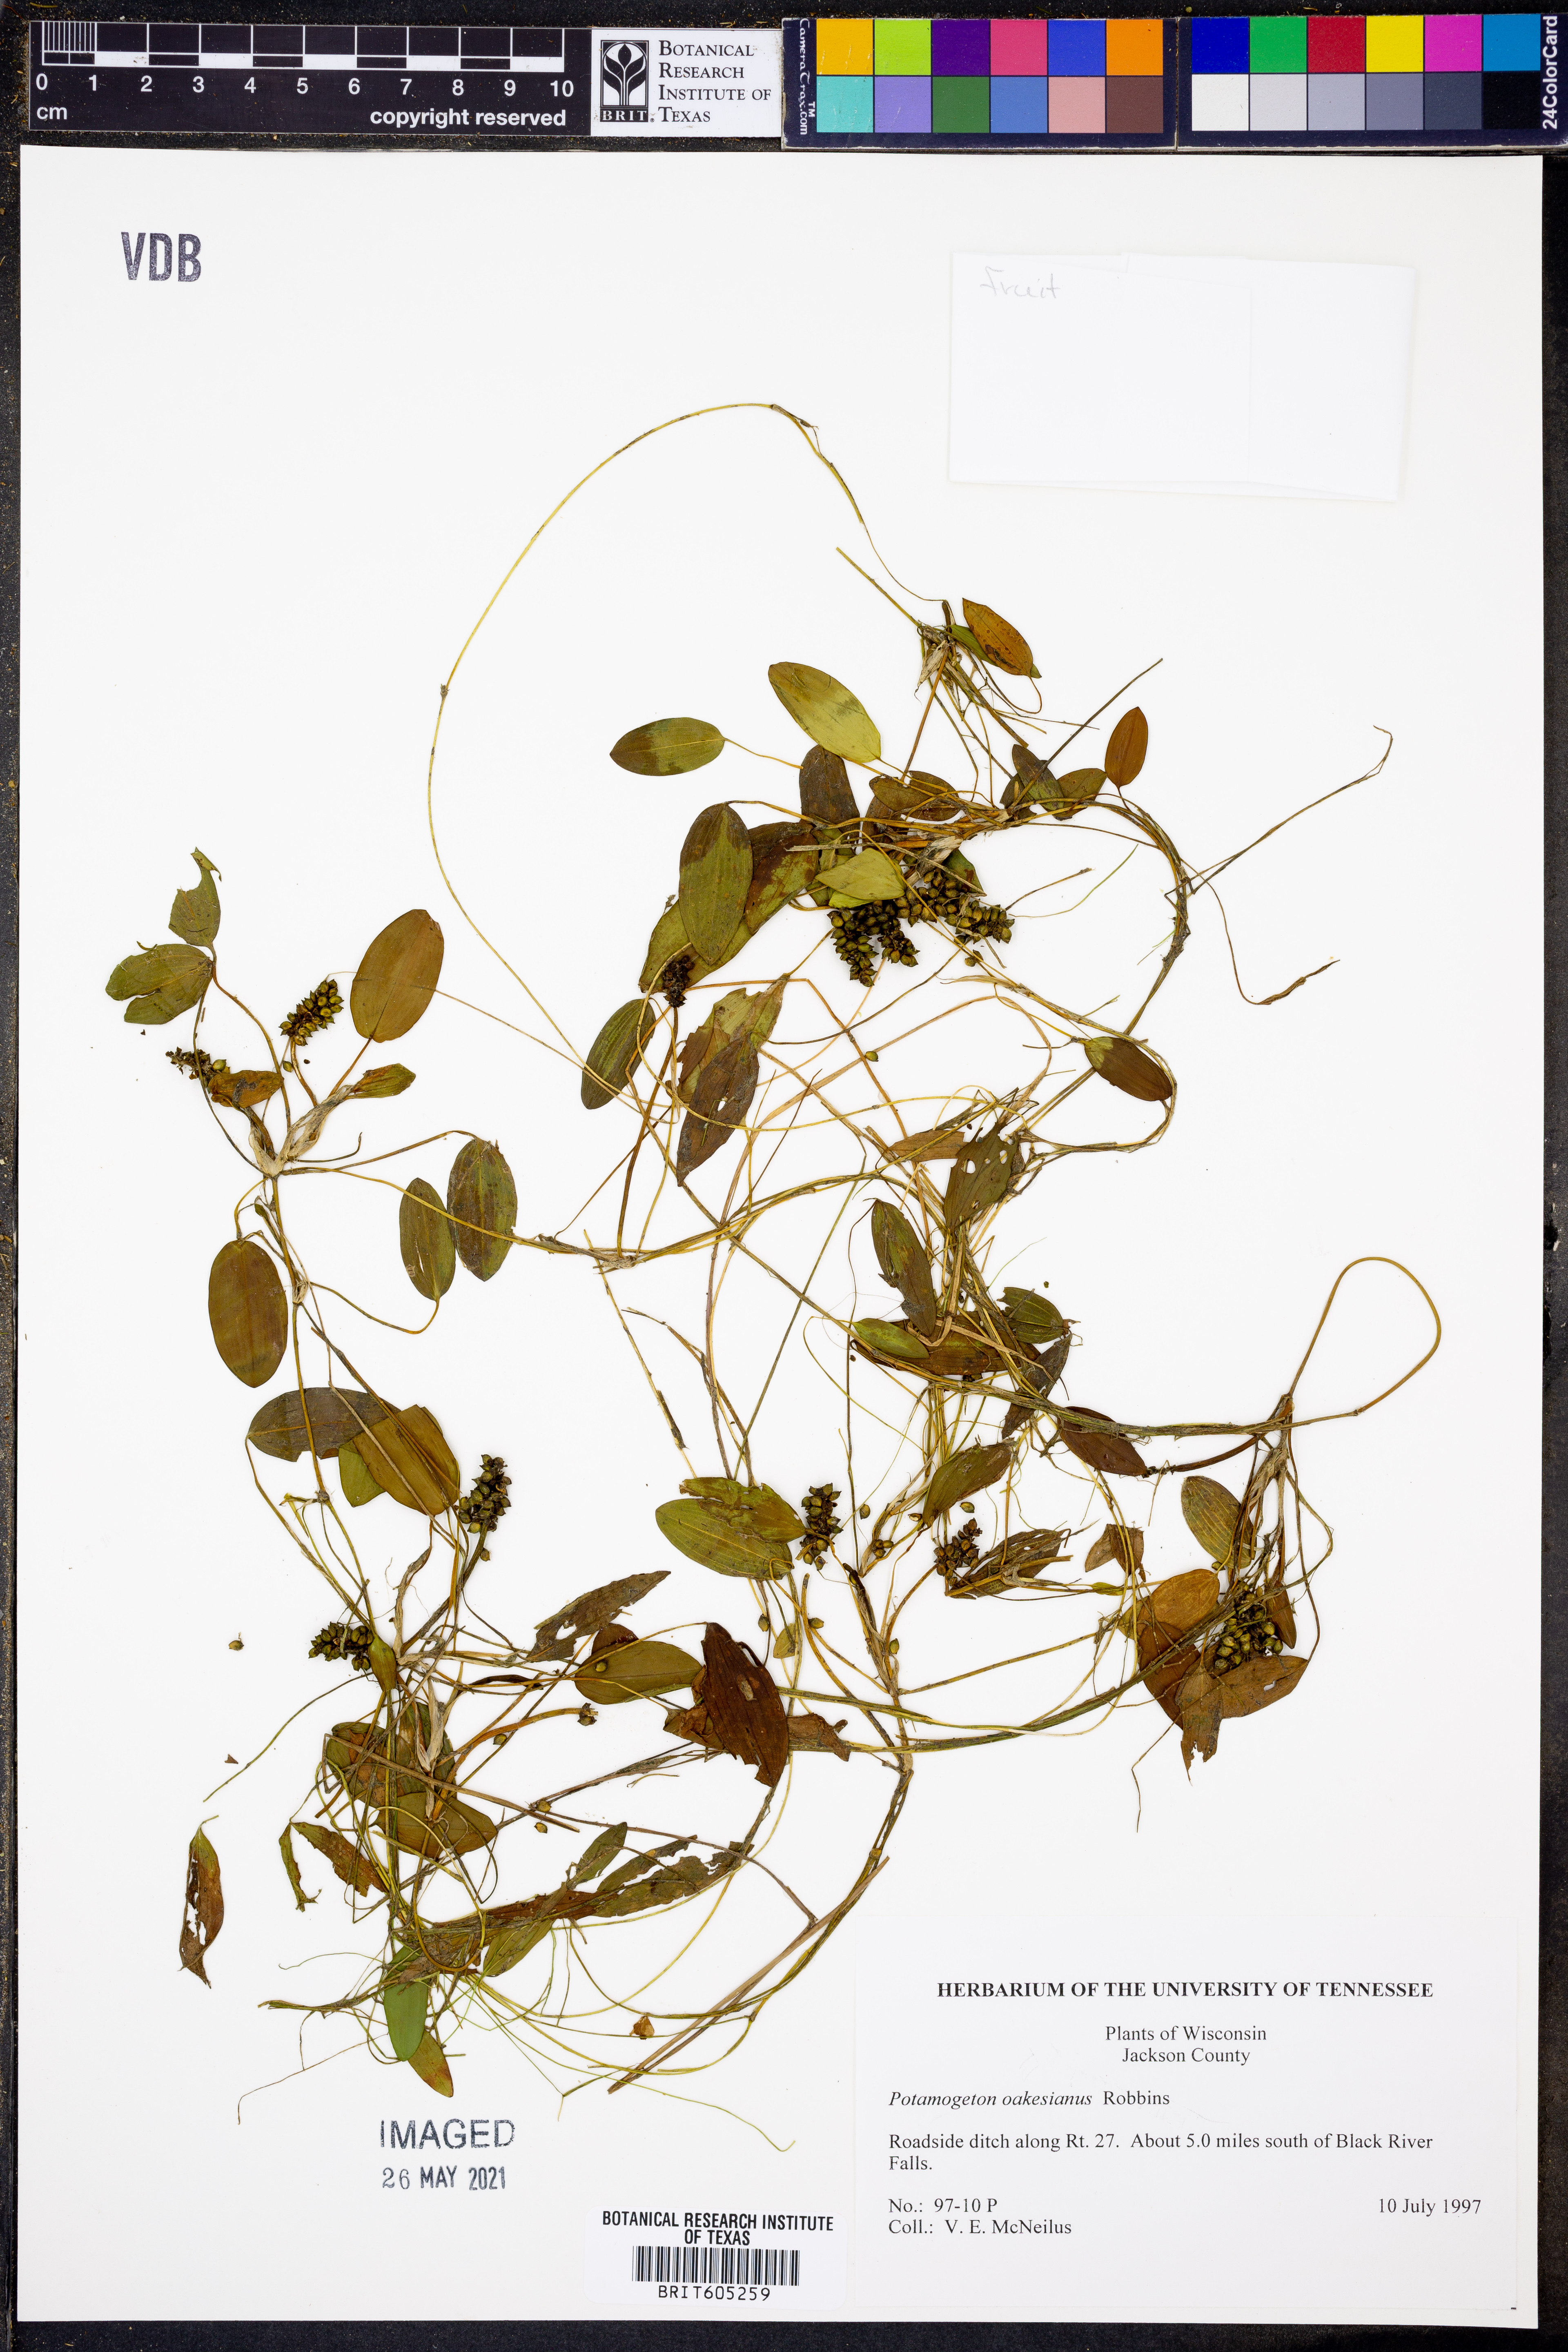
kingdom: Plantae
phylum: Tracheophyta
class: Liliopsida
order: Alismatales
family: Potamogetonaceae
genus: Potamogeton
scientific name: Potamogeton oakesianus
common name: Oakes' pondweed
